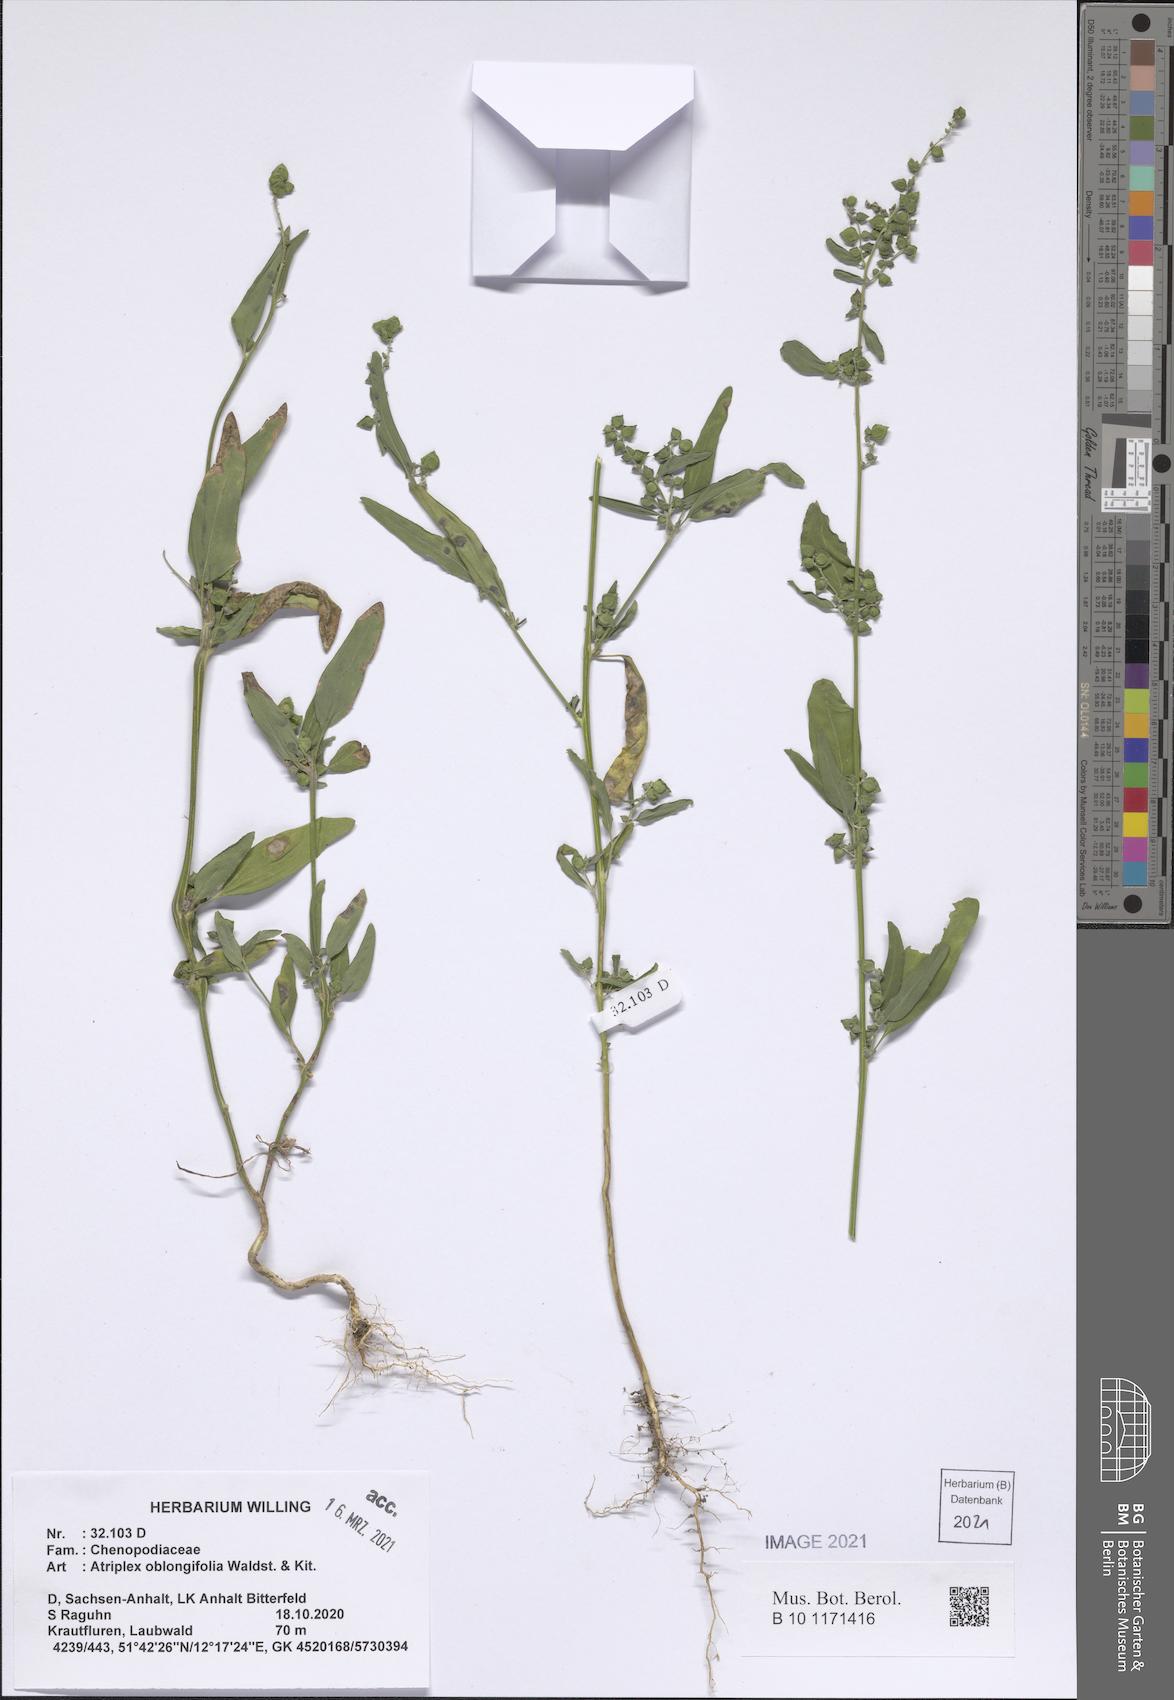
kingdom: Plantae
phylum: Tracheophyta
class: Magnoliopsida
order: Caryophyllales
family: Amaranthaceae
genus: Atriplex
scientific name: Atriplex oblongifolia
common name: Oblongleaf orache
